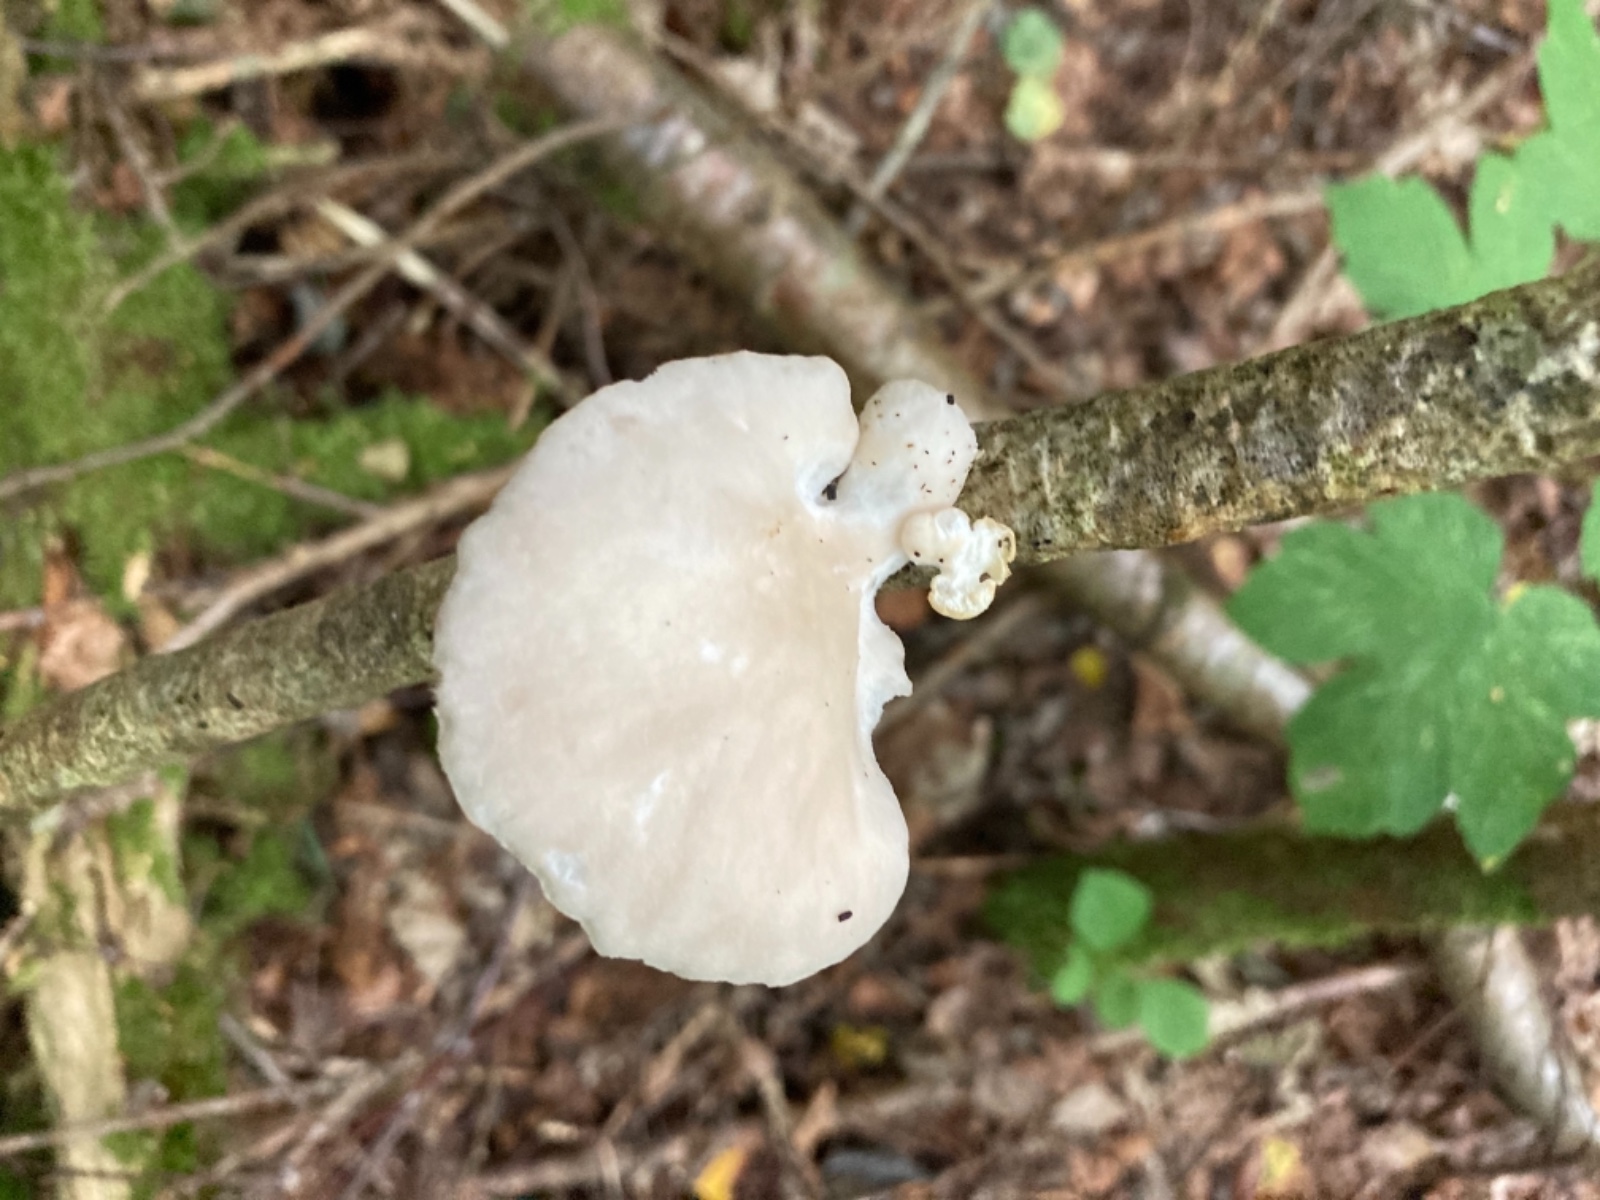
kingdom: Fungi
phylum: Basidiomycota
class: Agaricomycetes
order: Agaricales
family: Pleurotaceae
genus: Pleurotus
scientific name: Pleurotus pulmonarius
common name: sommer-østershat
